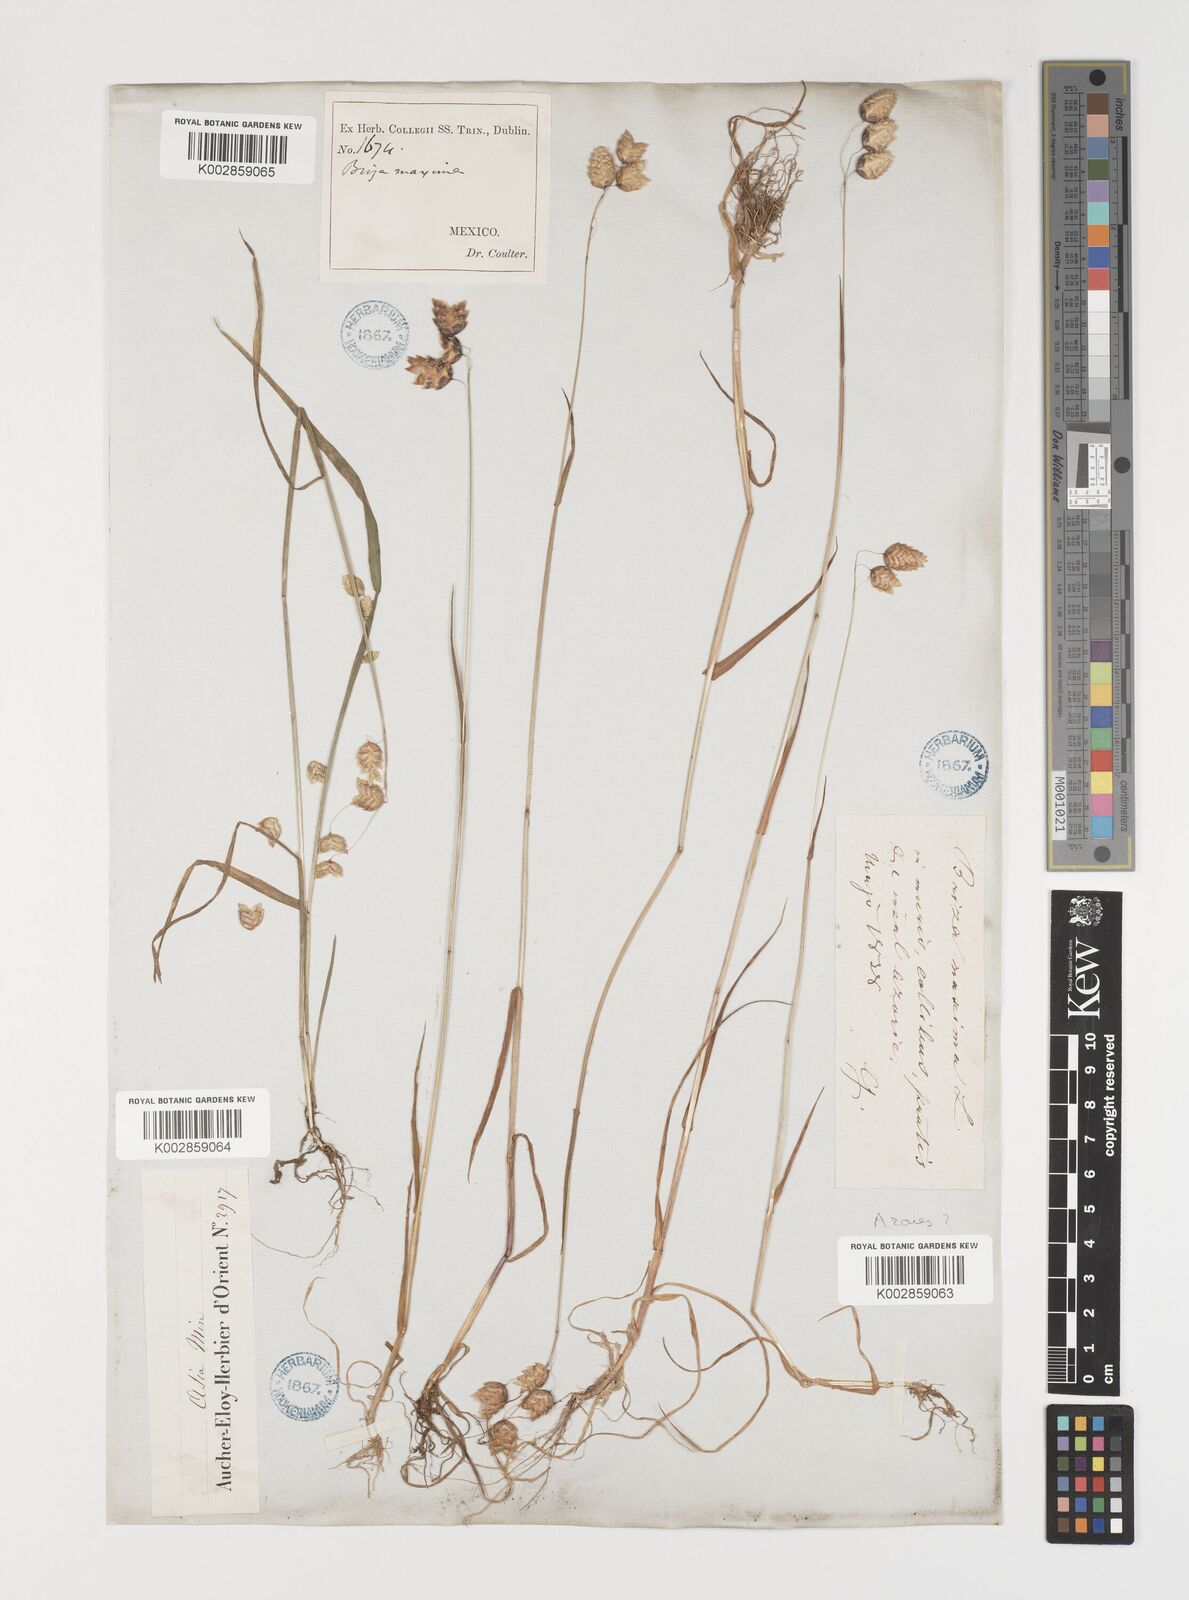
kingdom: Plantae
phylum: Tracheophyta
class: Liliopsida
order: Poales
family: Poaceae
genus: Briza
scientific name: Briza maxima
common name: Big quakinggrass
